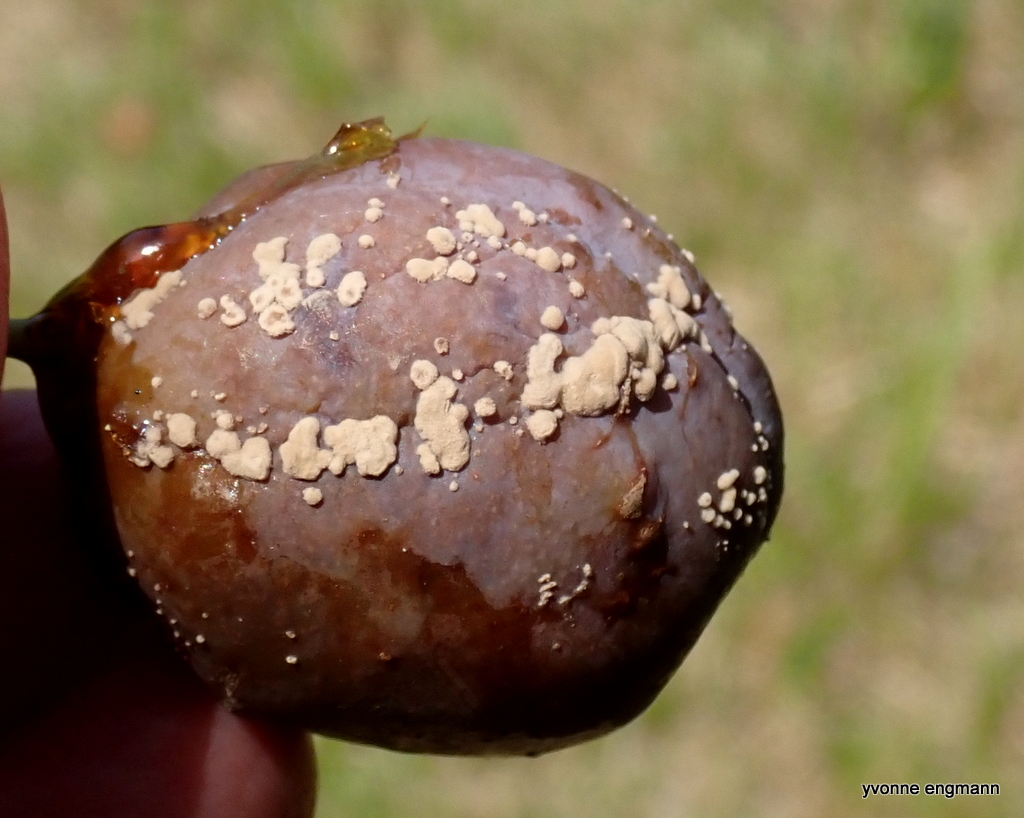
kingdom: Fungi
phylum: Ascomycota
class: Leotiomycetes
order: Helotiales
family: Sclerotiniaceae
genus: Monilinia
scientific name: Monilinia laxa
